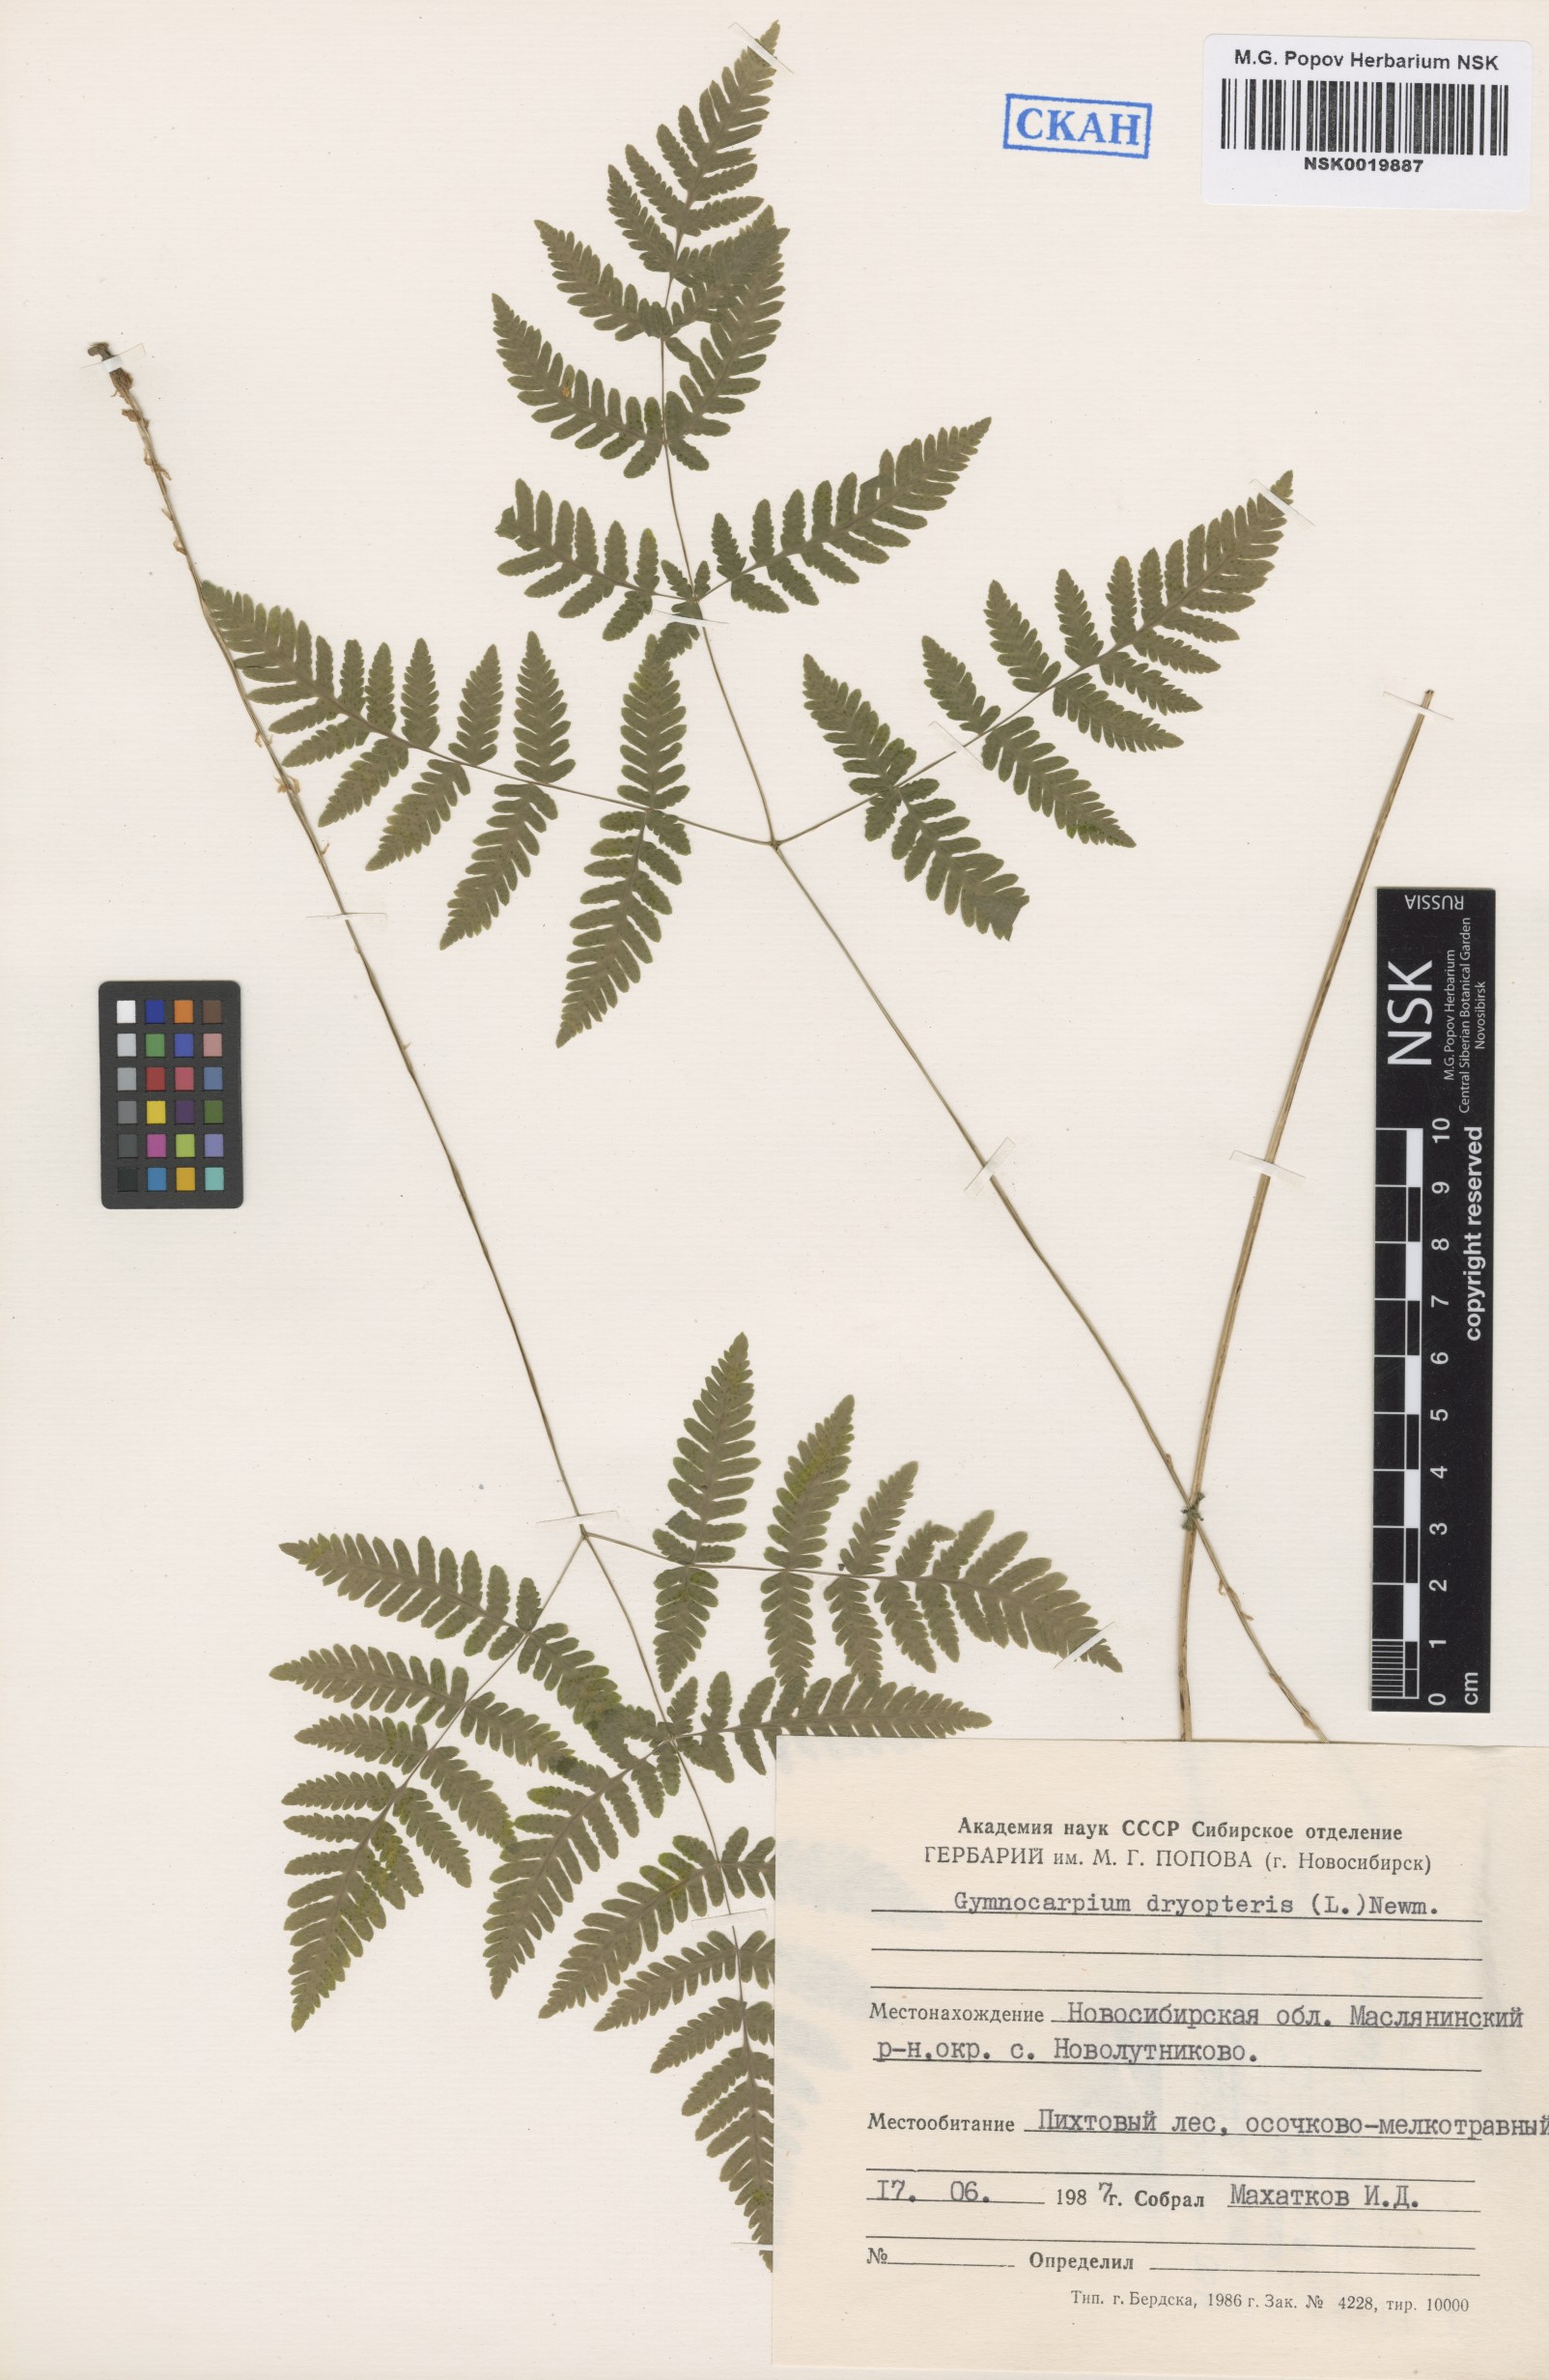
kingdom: Plantae
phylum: Tracheophyta
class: Polypodiopsida
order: Polypodiales
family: Cystopteridaceae
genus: Gymnocarpium
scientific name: Gymnocarpium dryopteris
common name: Oak fern
